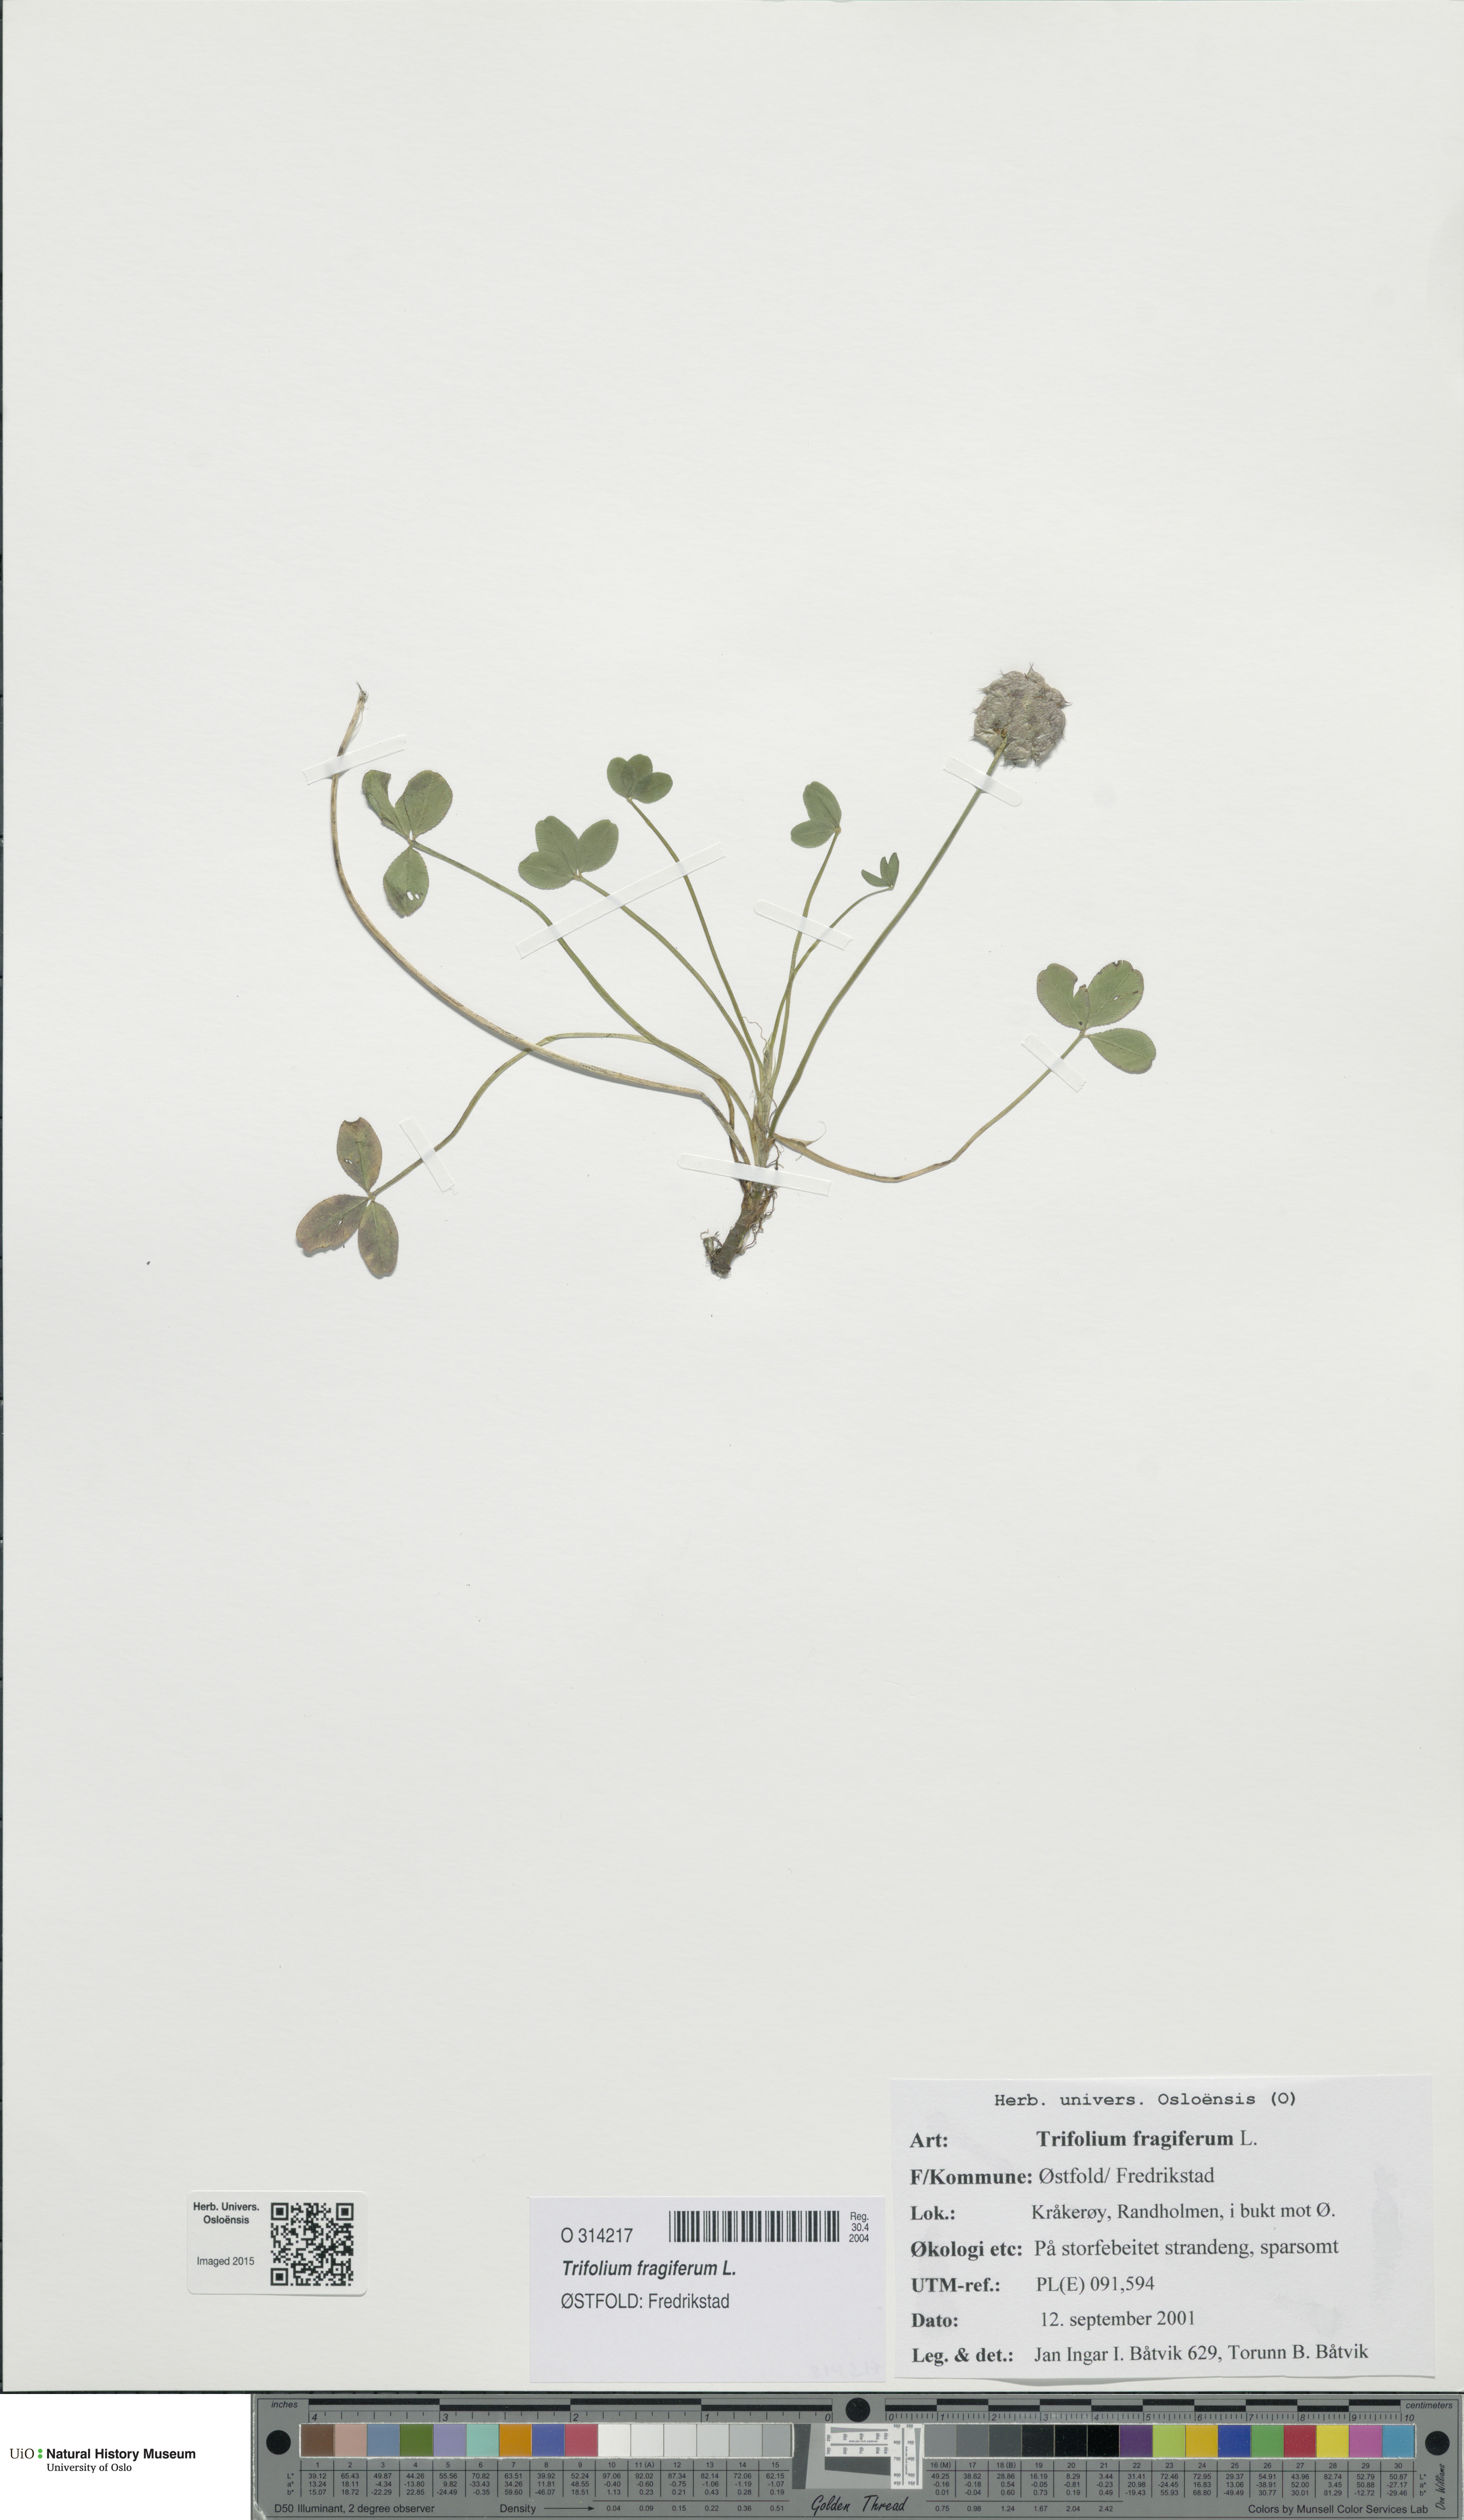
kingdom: Plantae
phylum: Tracheophyta
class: Magnoliopsida
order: Fabales
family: Fabaceae
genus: Trifolium
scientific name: Trifolium fragiferum
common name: Strawberry clover
